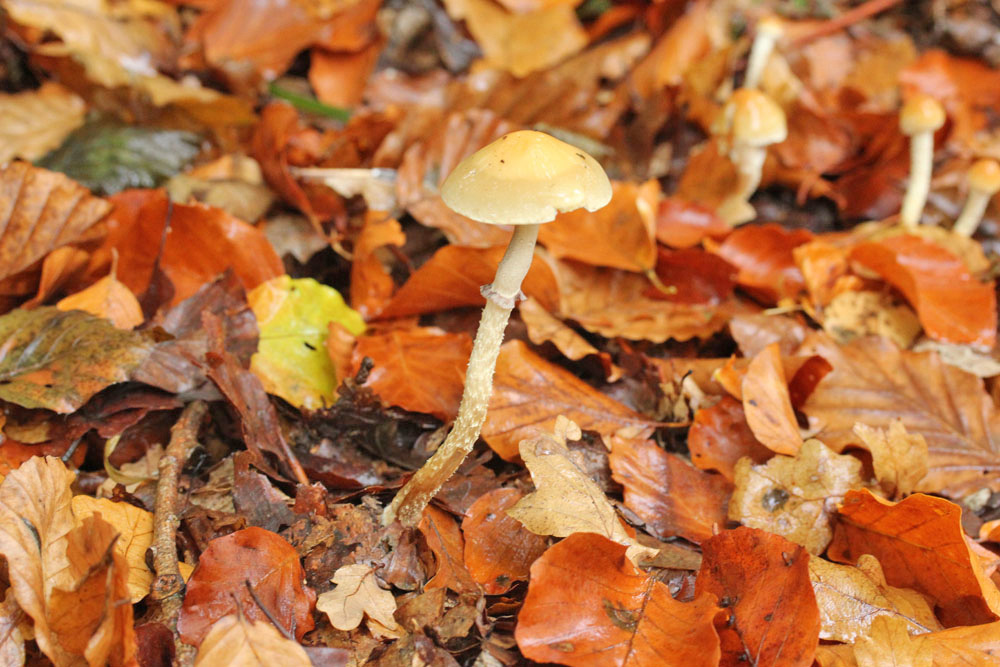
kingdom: Fungi
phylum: Basidiomycota
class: Agaricomycetes
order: Agaricales
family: Strophariaceae
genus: Leratiomyces
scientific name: Leratiomyces squamosus
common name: skællet bredblad
